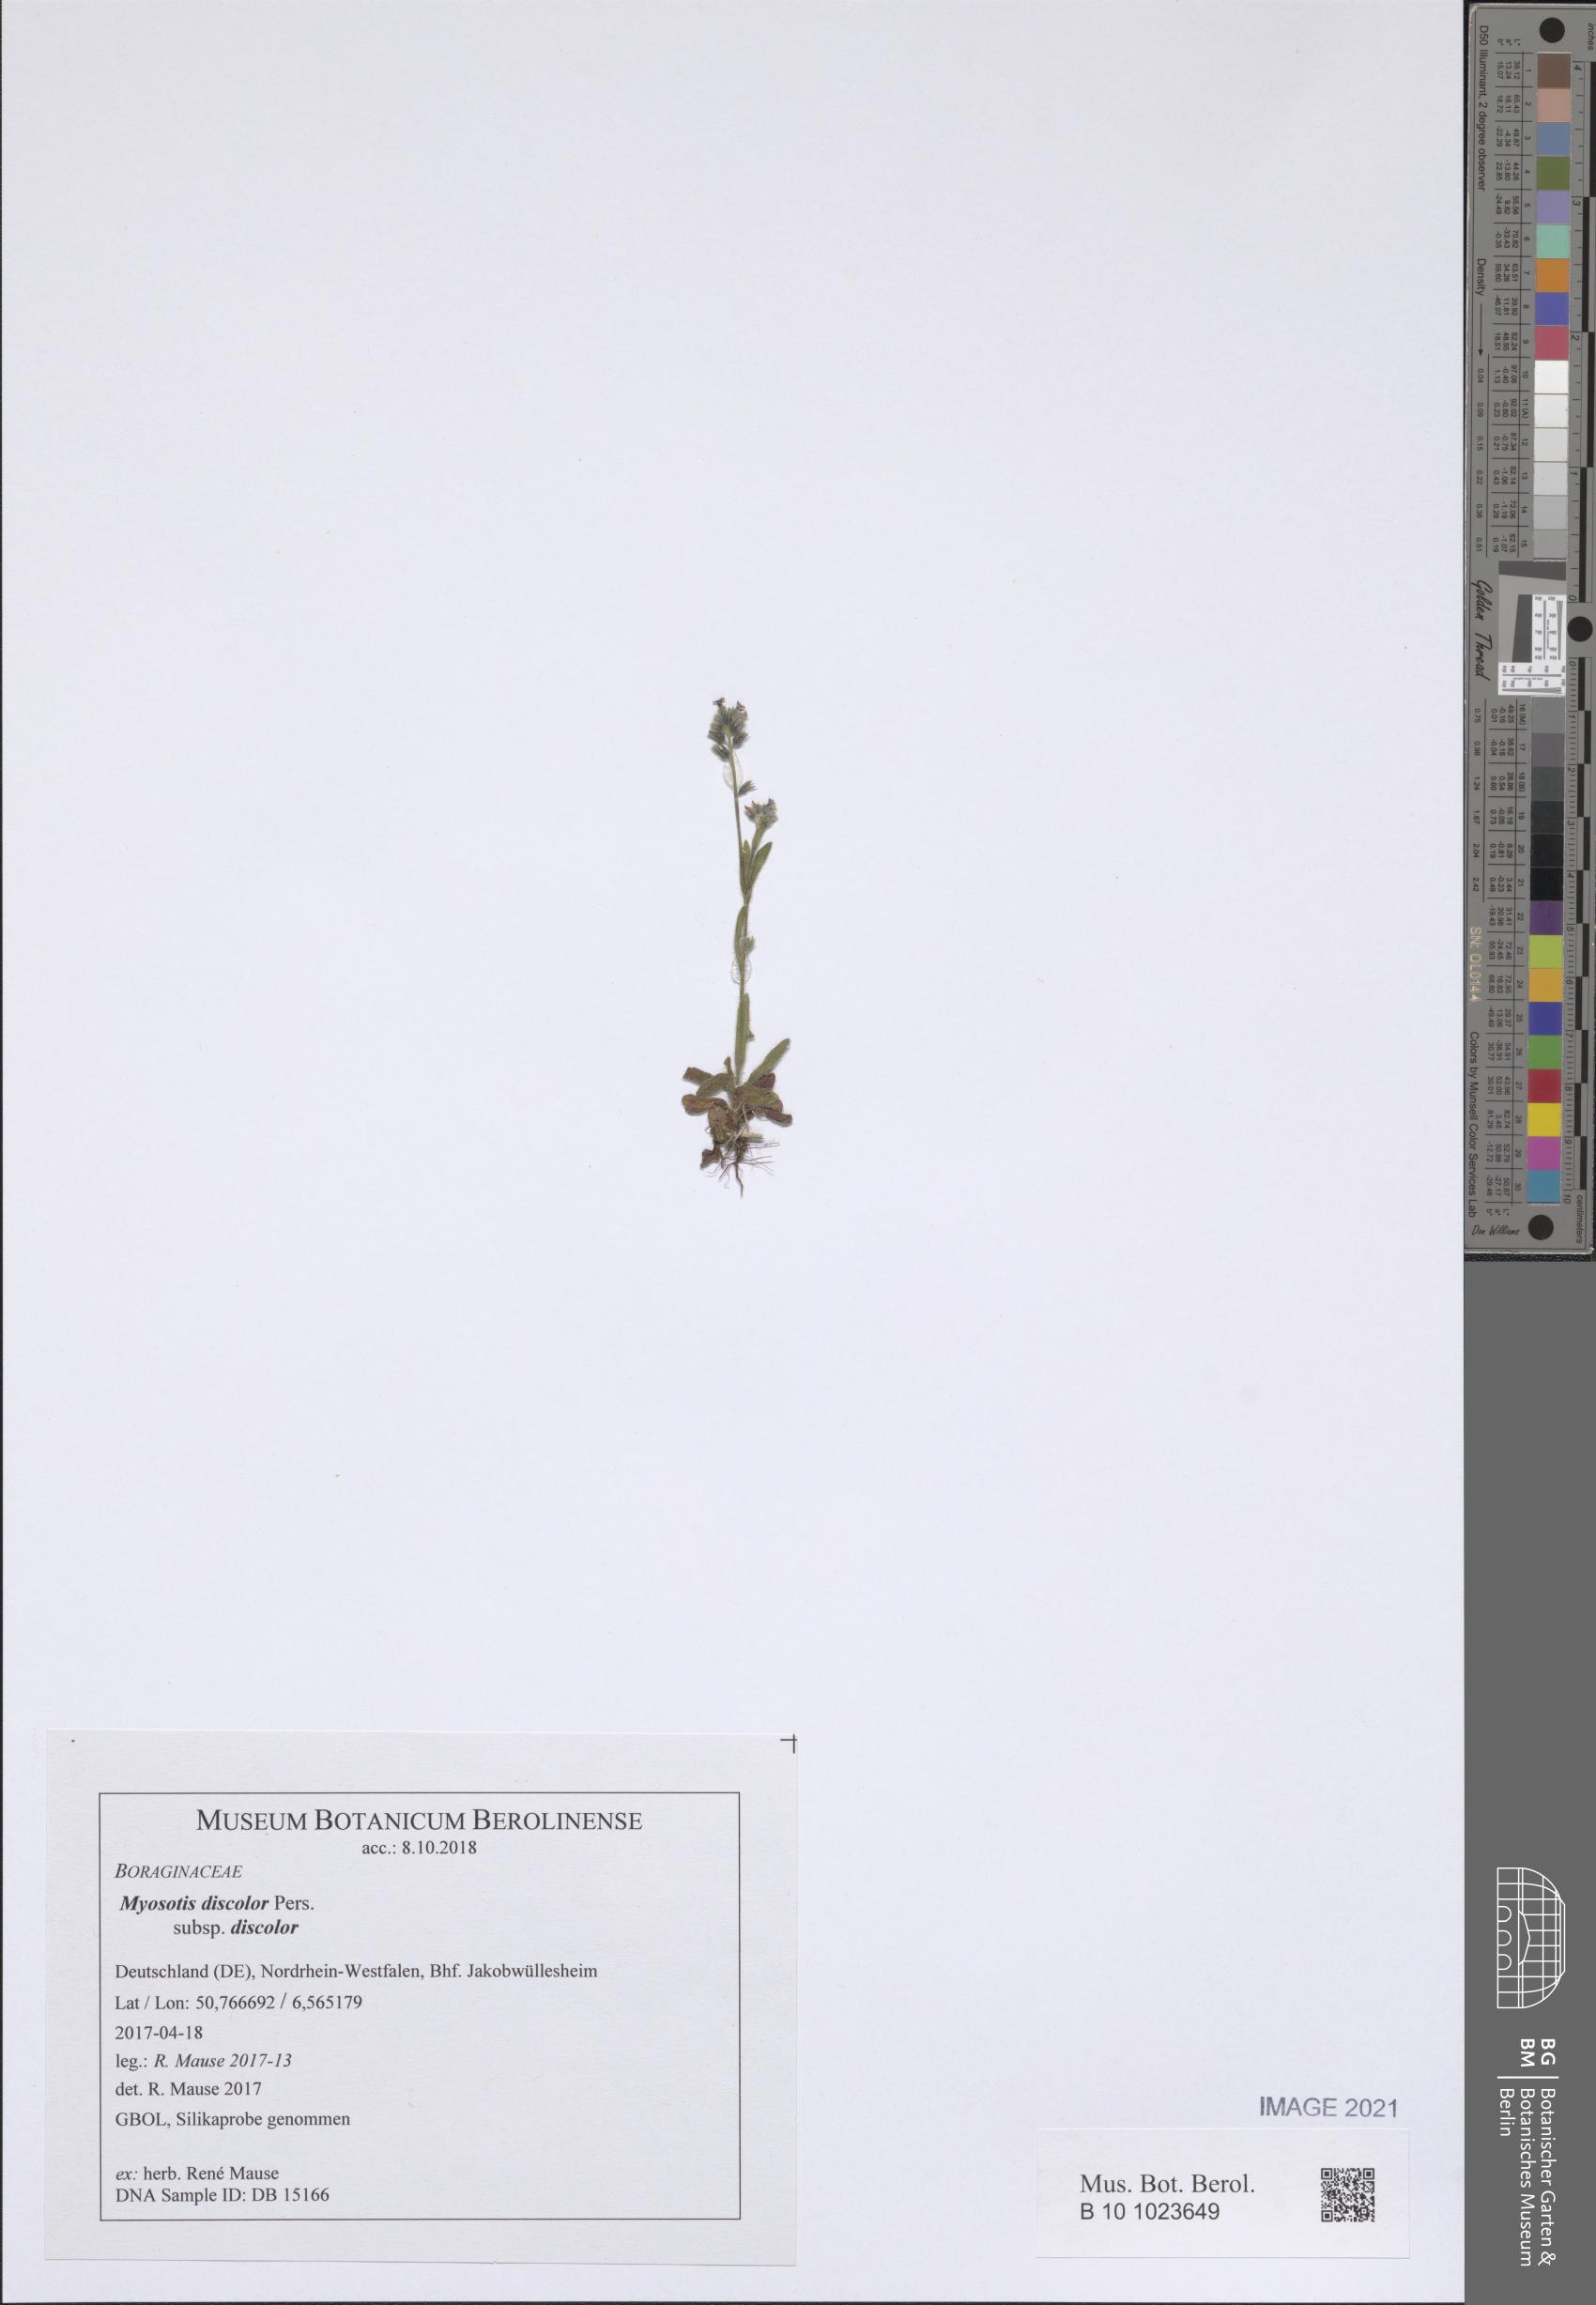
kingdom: Plantae
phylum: Tracheophyta
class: Magnoliopsida
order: Boraginales
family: Boraginaceae
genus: Myosotis
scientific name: Myosotis discolor
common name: Changing forget-me-not
